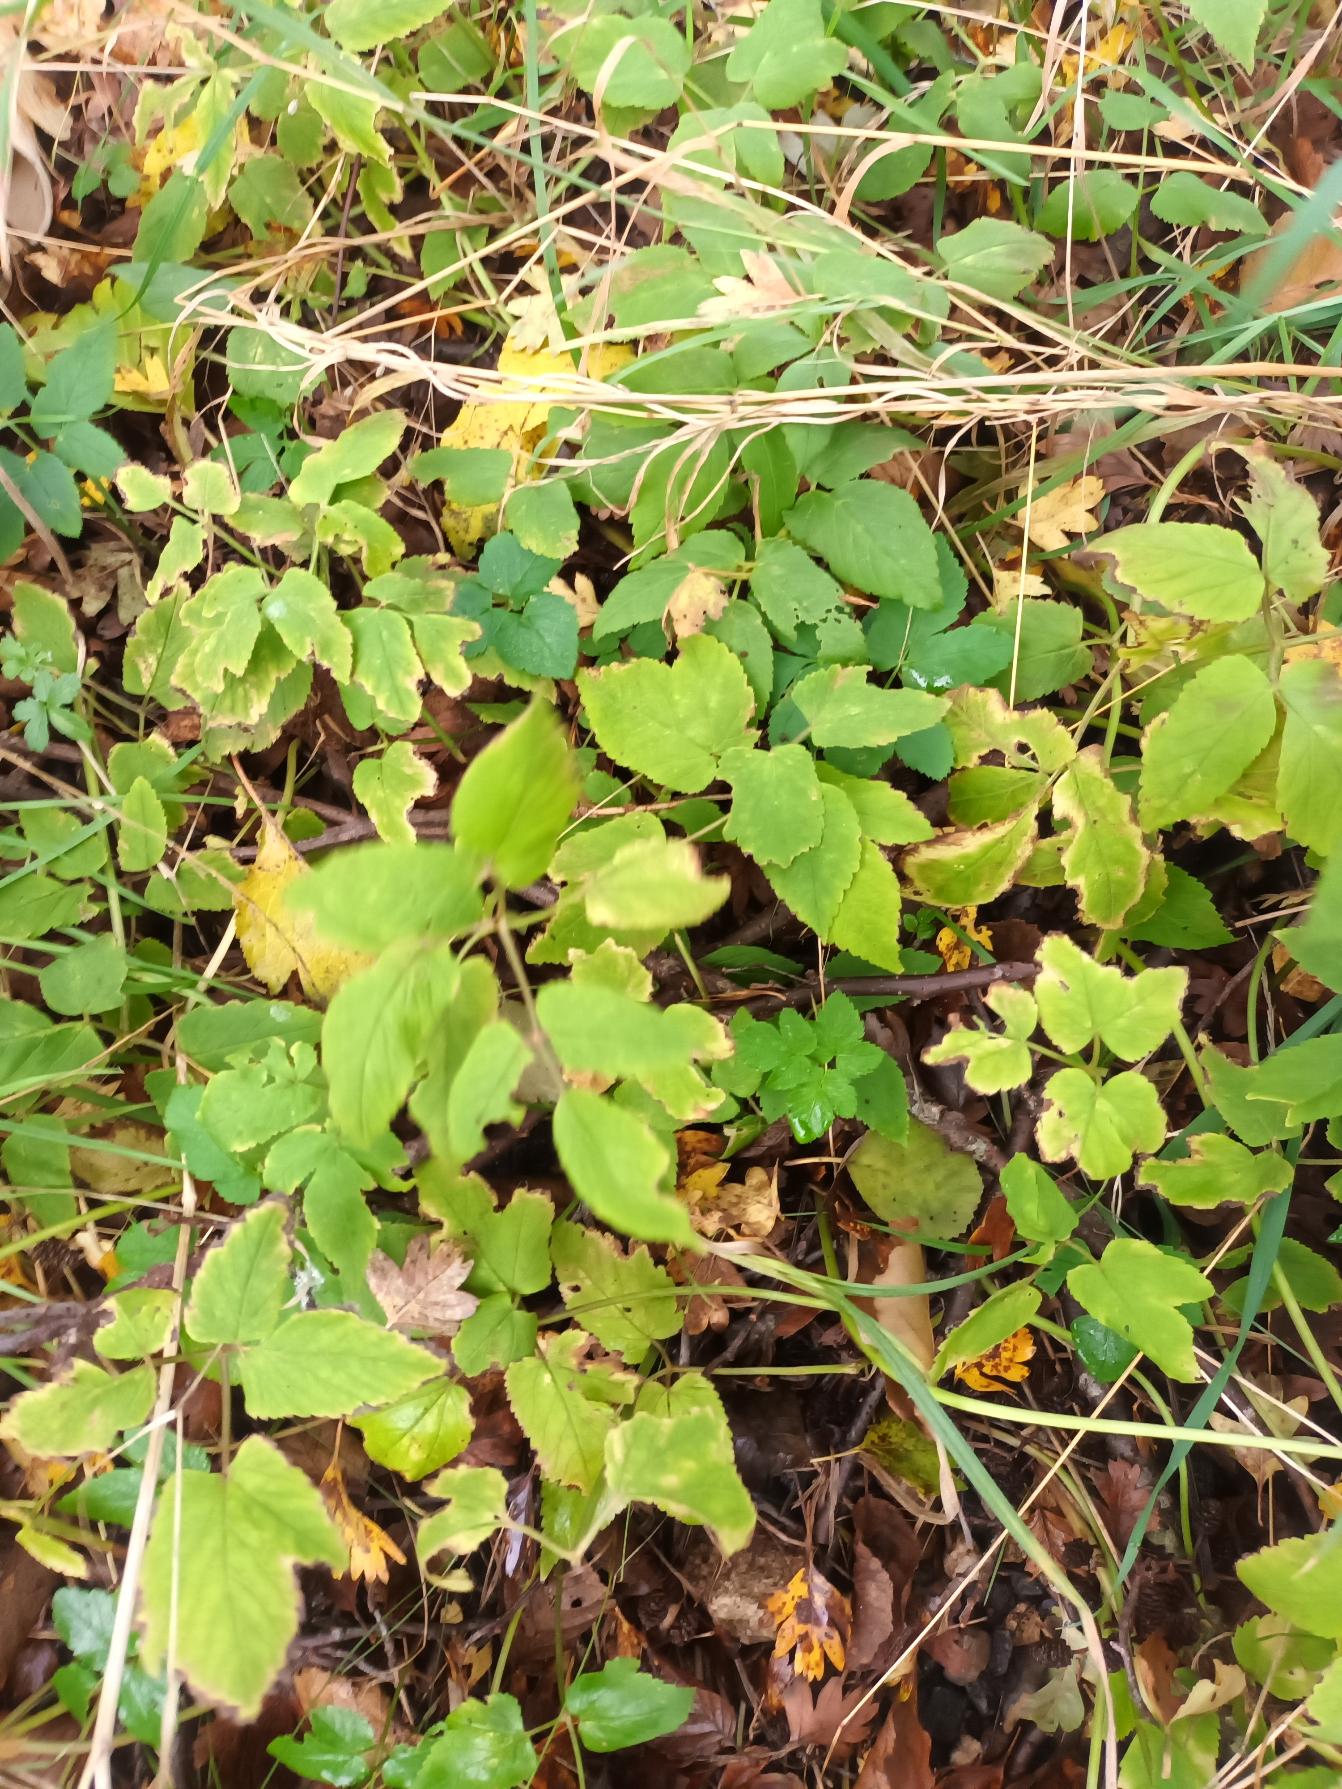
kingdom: Plantae
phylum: Tracheophyta
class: Magnoliopsida
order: Apiales
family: Apiaceae
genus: Aegopodium
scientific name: Aegopodium podagraria
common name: Skvalderkål
